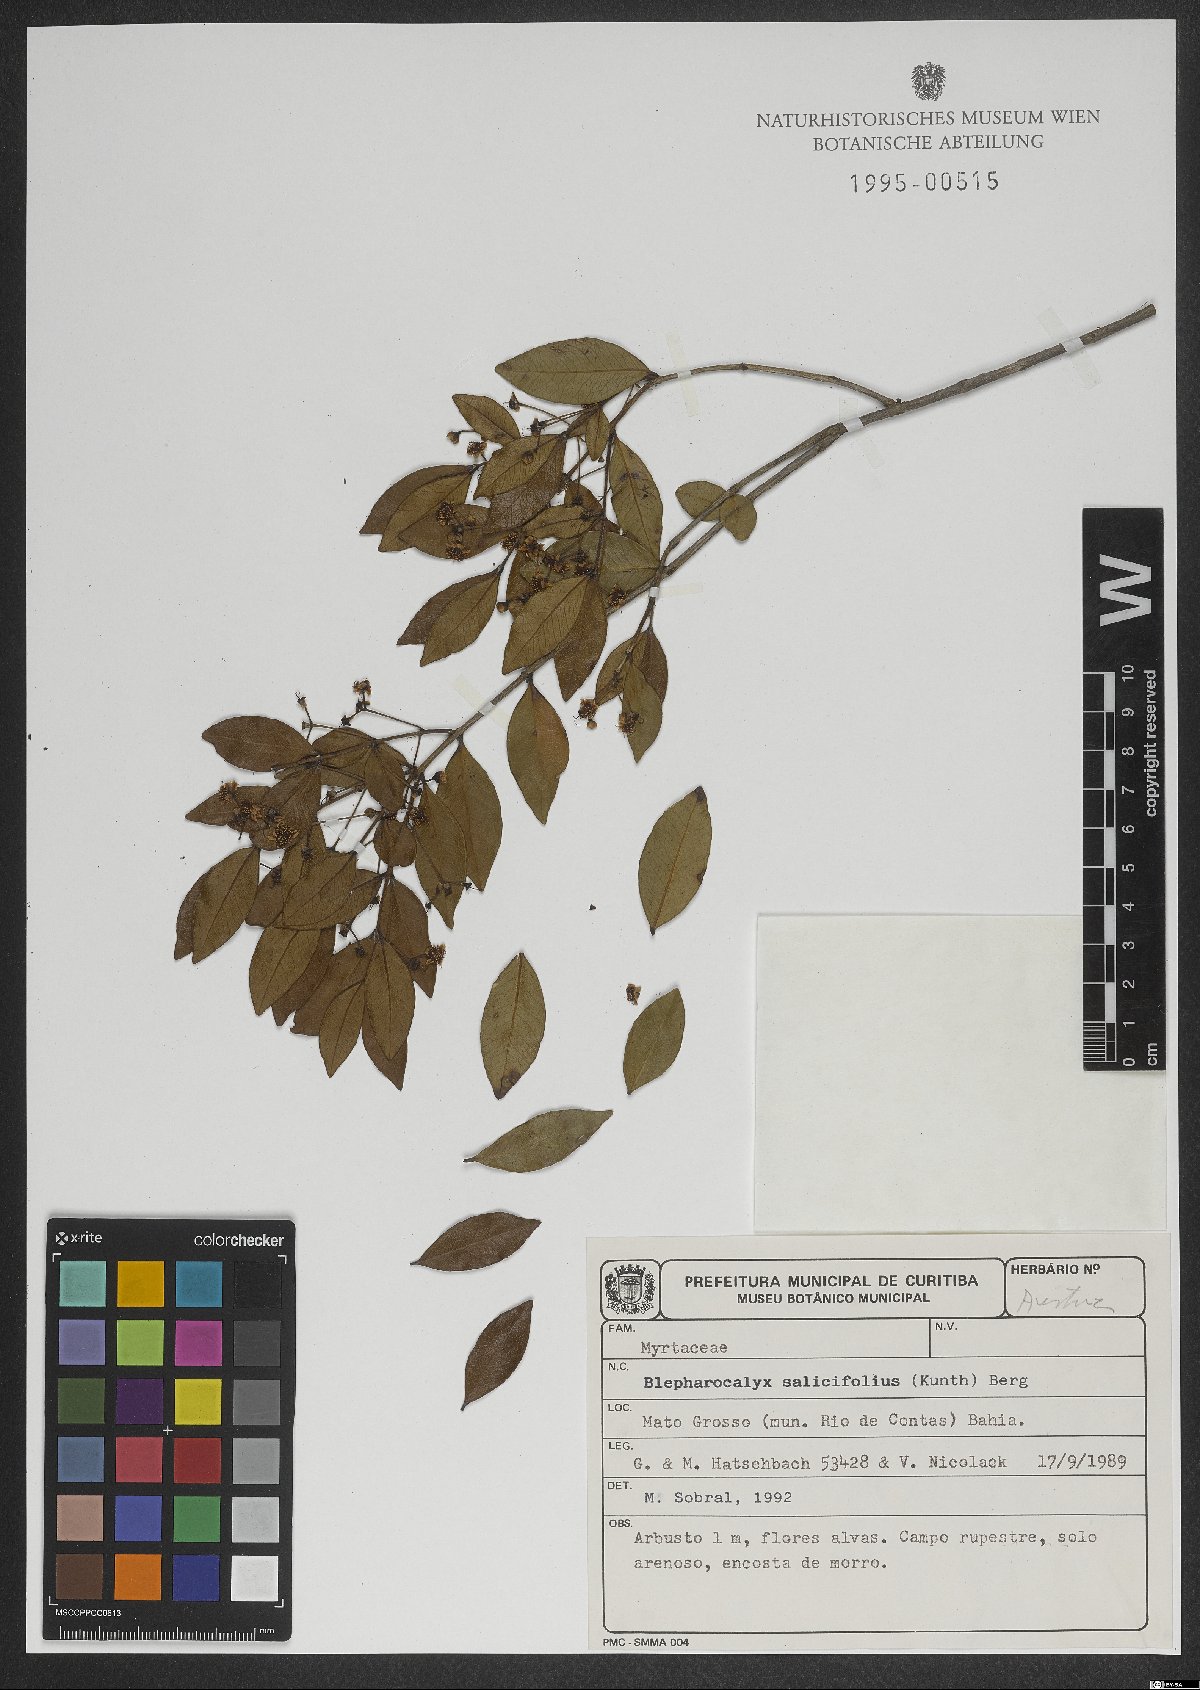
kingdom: Plantae
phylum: Tracheophyta
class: Magnoliopsida
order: Myrtales
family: Myrtaceae
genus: Blepharocalyx
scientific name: Blepharocalyx salicifolius
